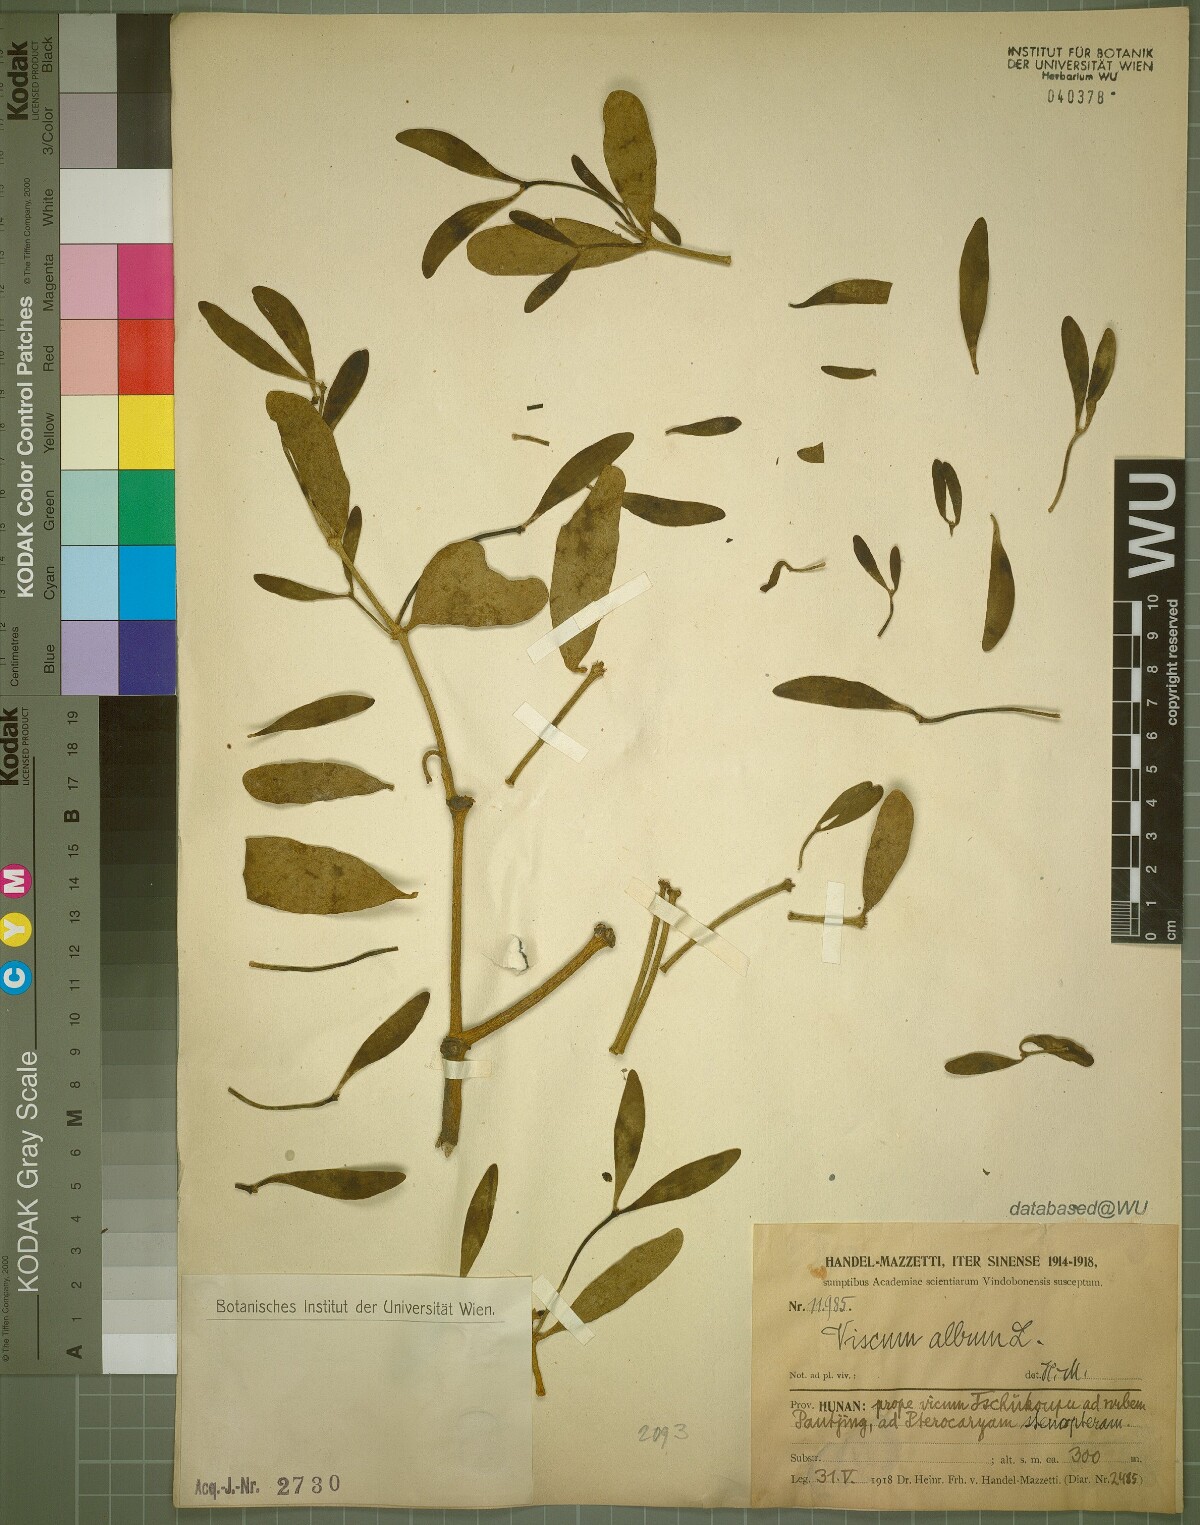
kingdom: Plantae
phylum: Tracheophyta
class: Magnoliopsida
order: Santalales
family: Viscaceae
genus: Viscum
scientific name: Viscum album
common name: Mistletoe
